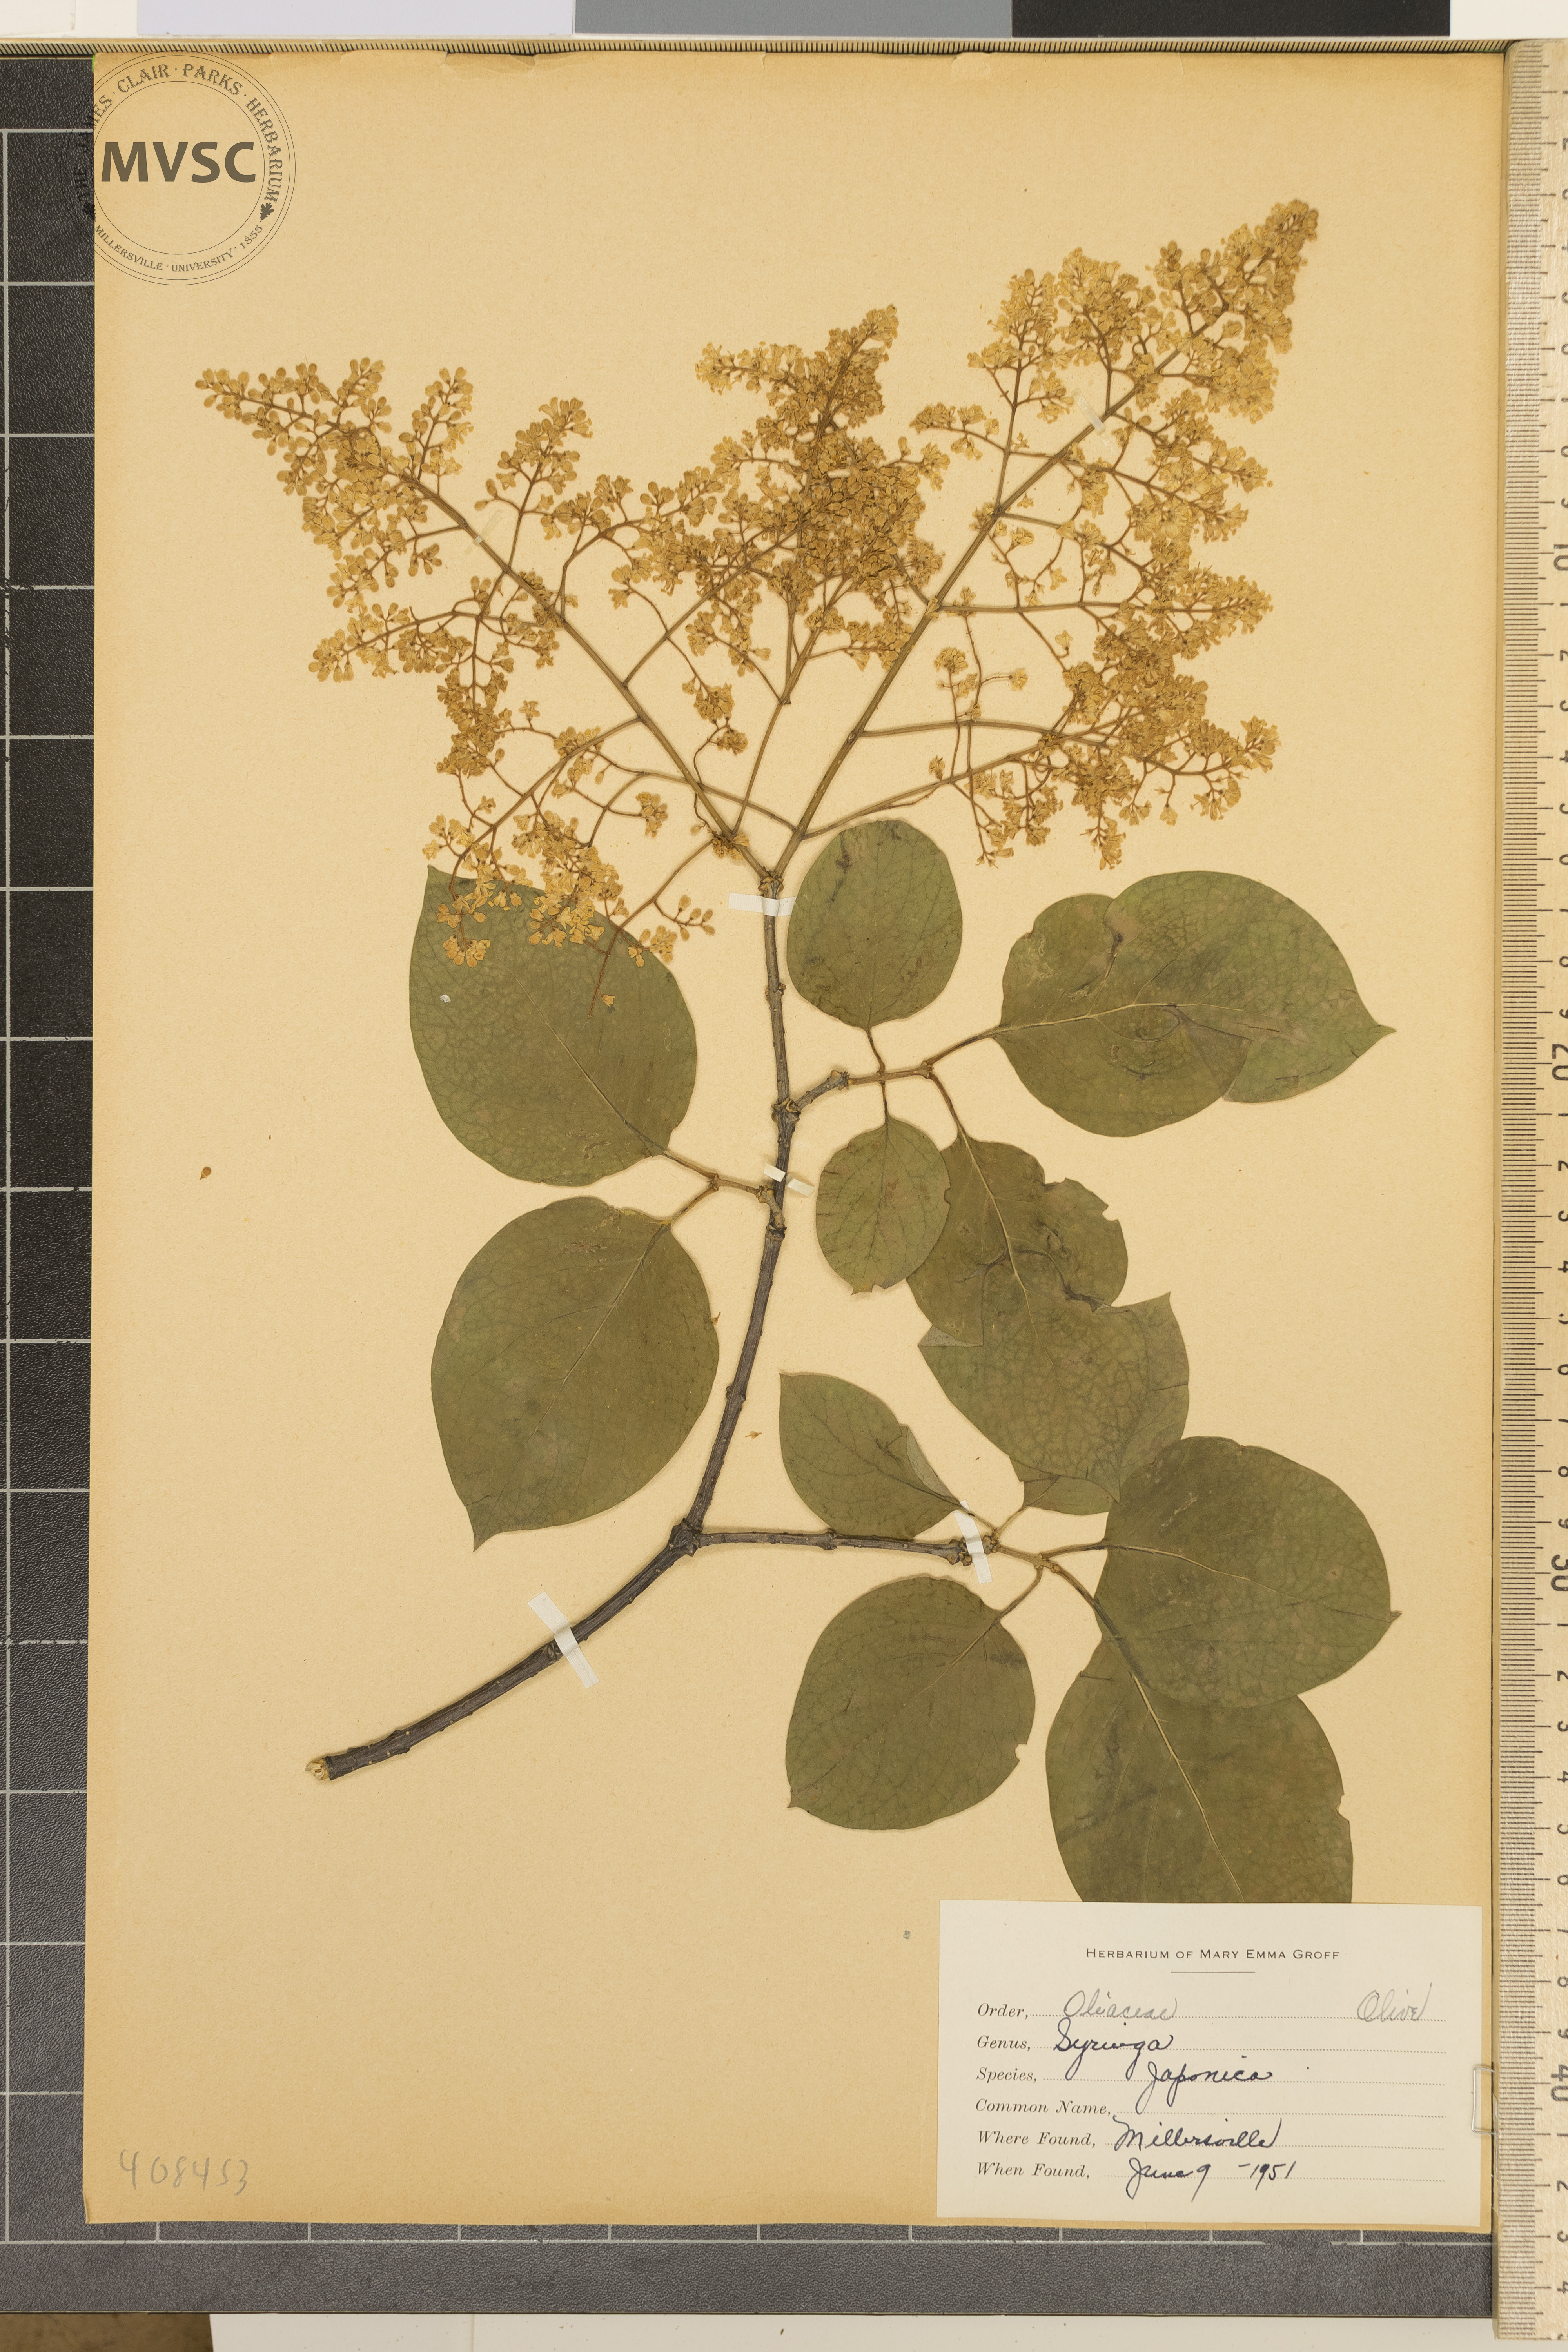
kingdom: Plantae
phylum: Tracheophyta
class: Magnoliopsida
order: Lamiales
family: Oleaceae
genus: Syringa
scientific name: Syringa japonica
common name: Lilac
